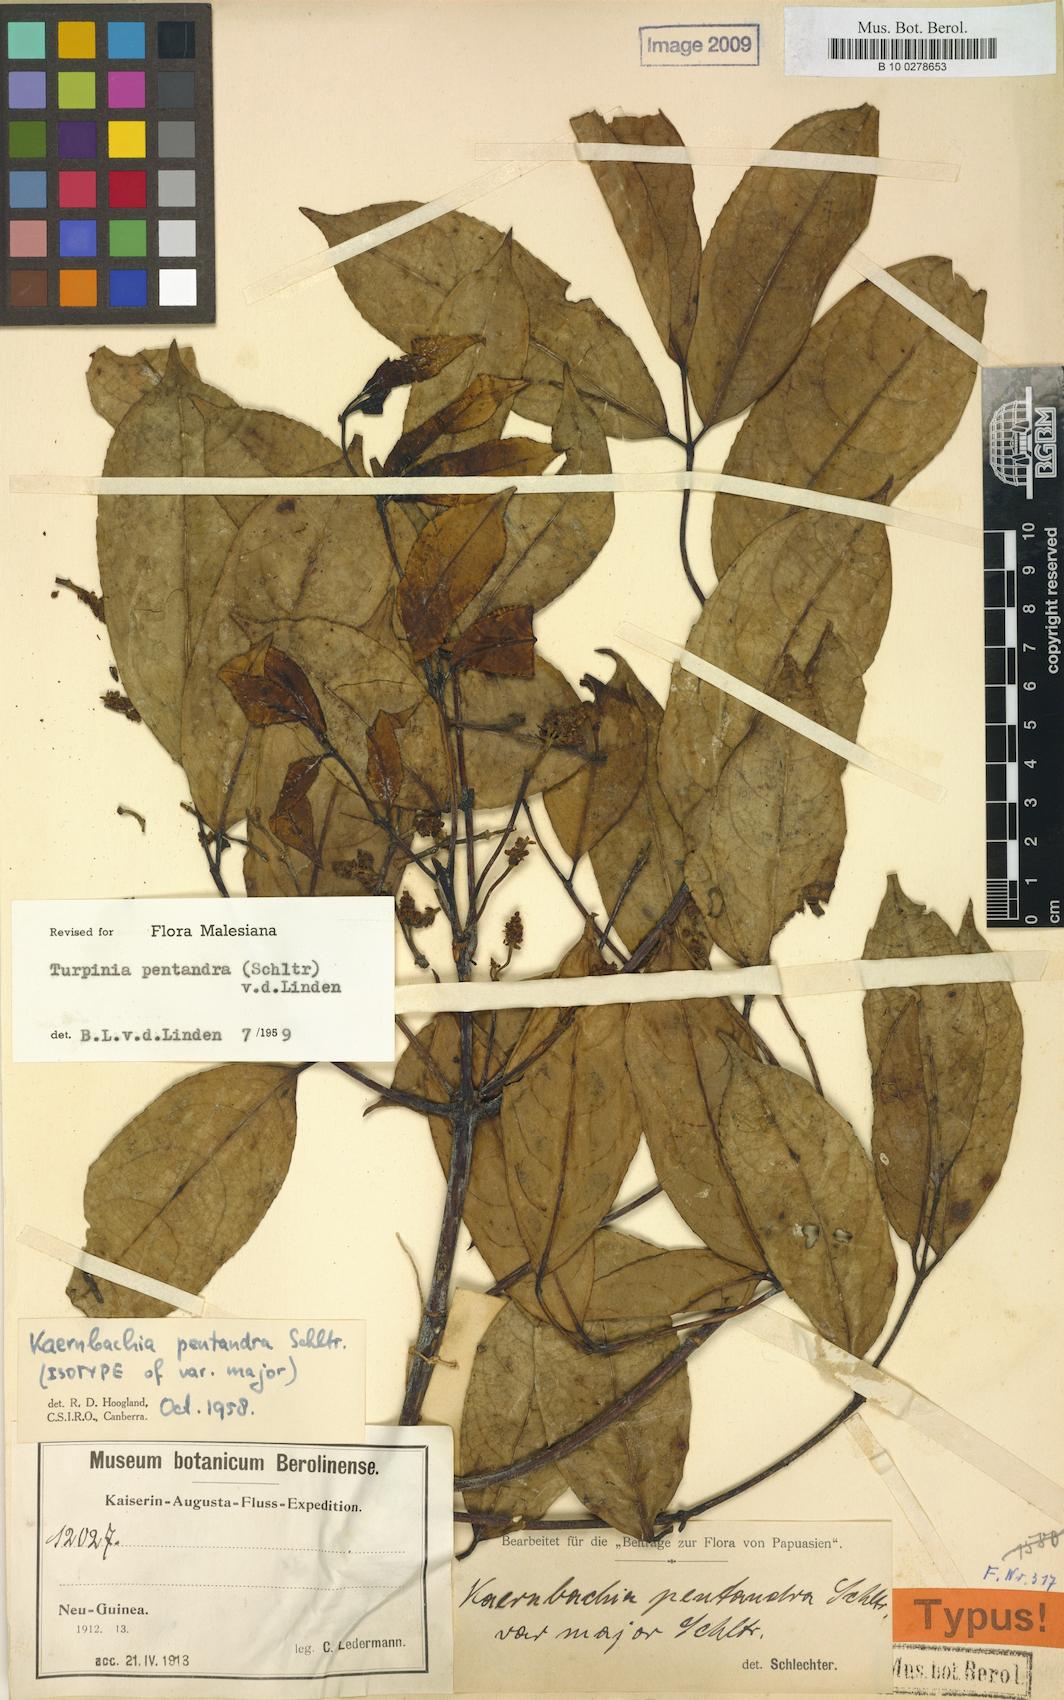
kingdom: Plantae
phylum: Tracheophyta
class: Magnoliopsida
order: Crossosomatales
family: Staphyleaceae
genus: Turpinia
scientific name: Turpinia pentandra
